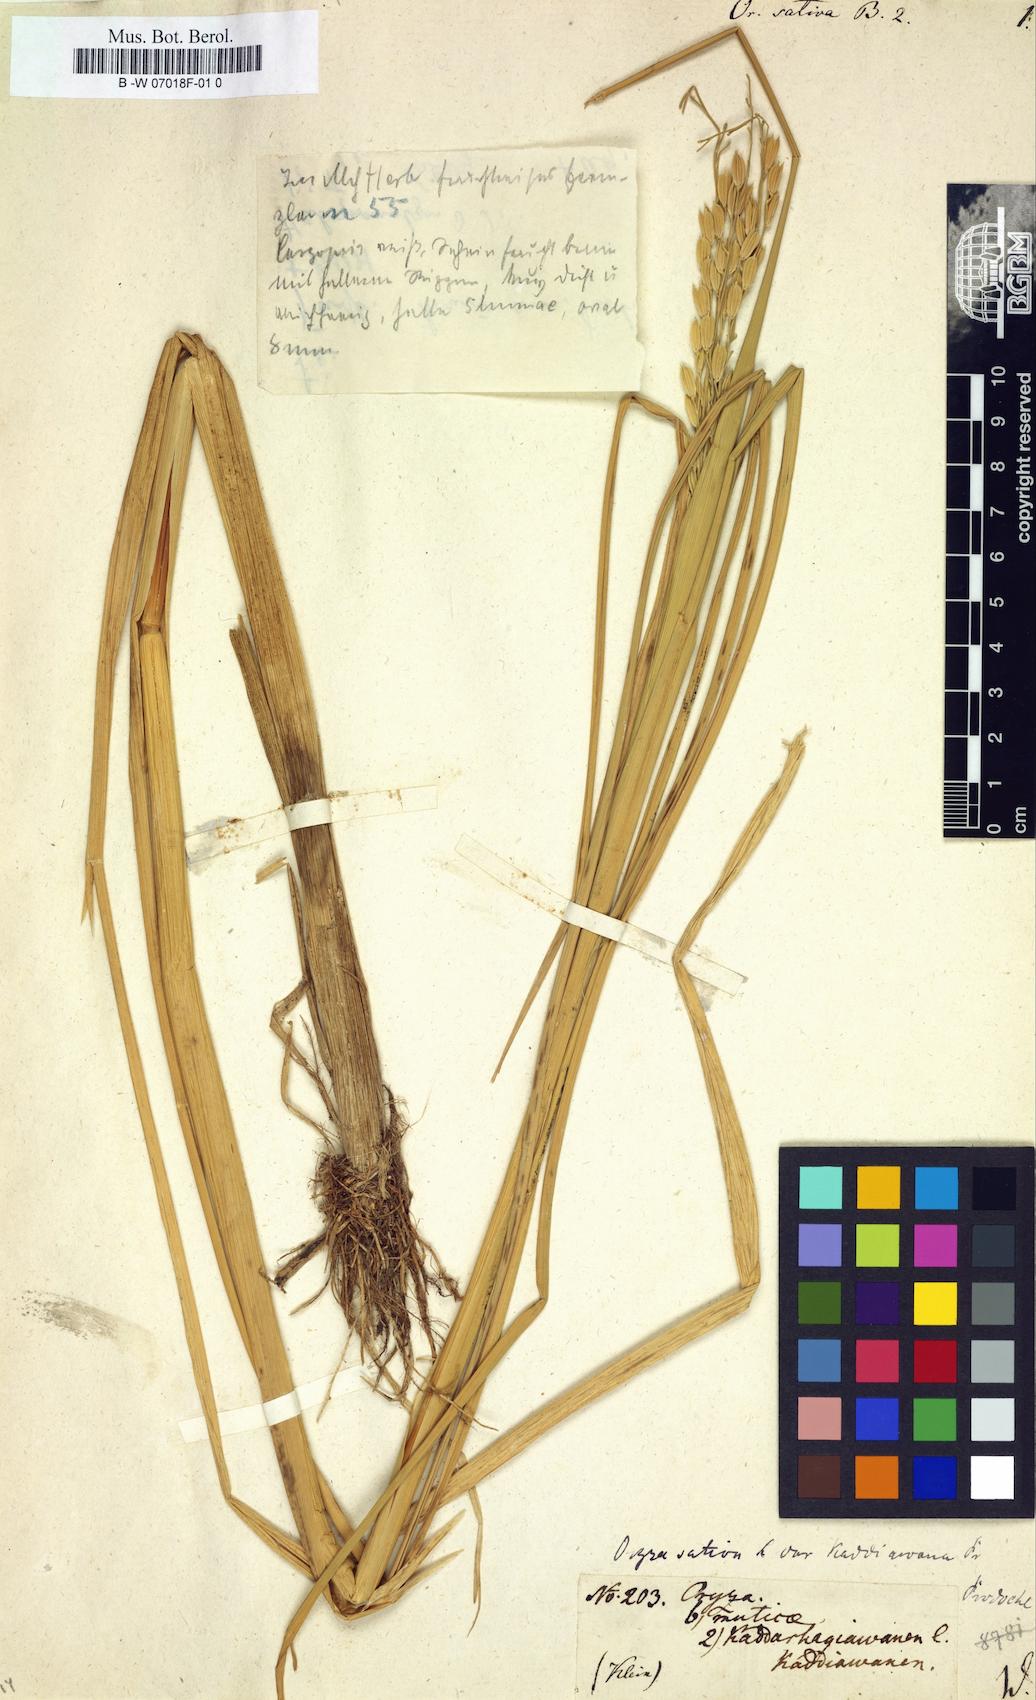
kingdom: Plantae
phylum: Tracheophyta
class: Liliopsida
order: Poales
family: Poaceae
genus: Oryza
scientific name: Oryza sativa
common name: Rice
